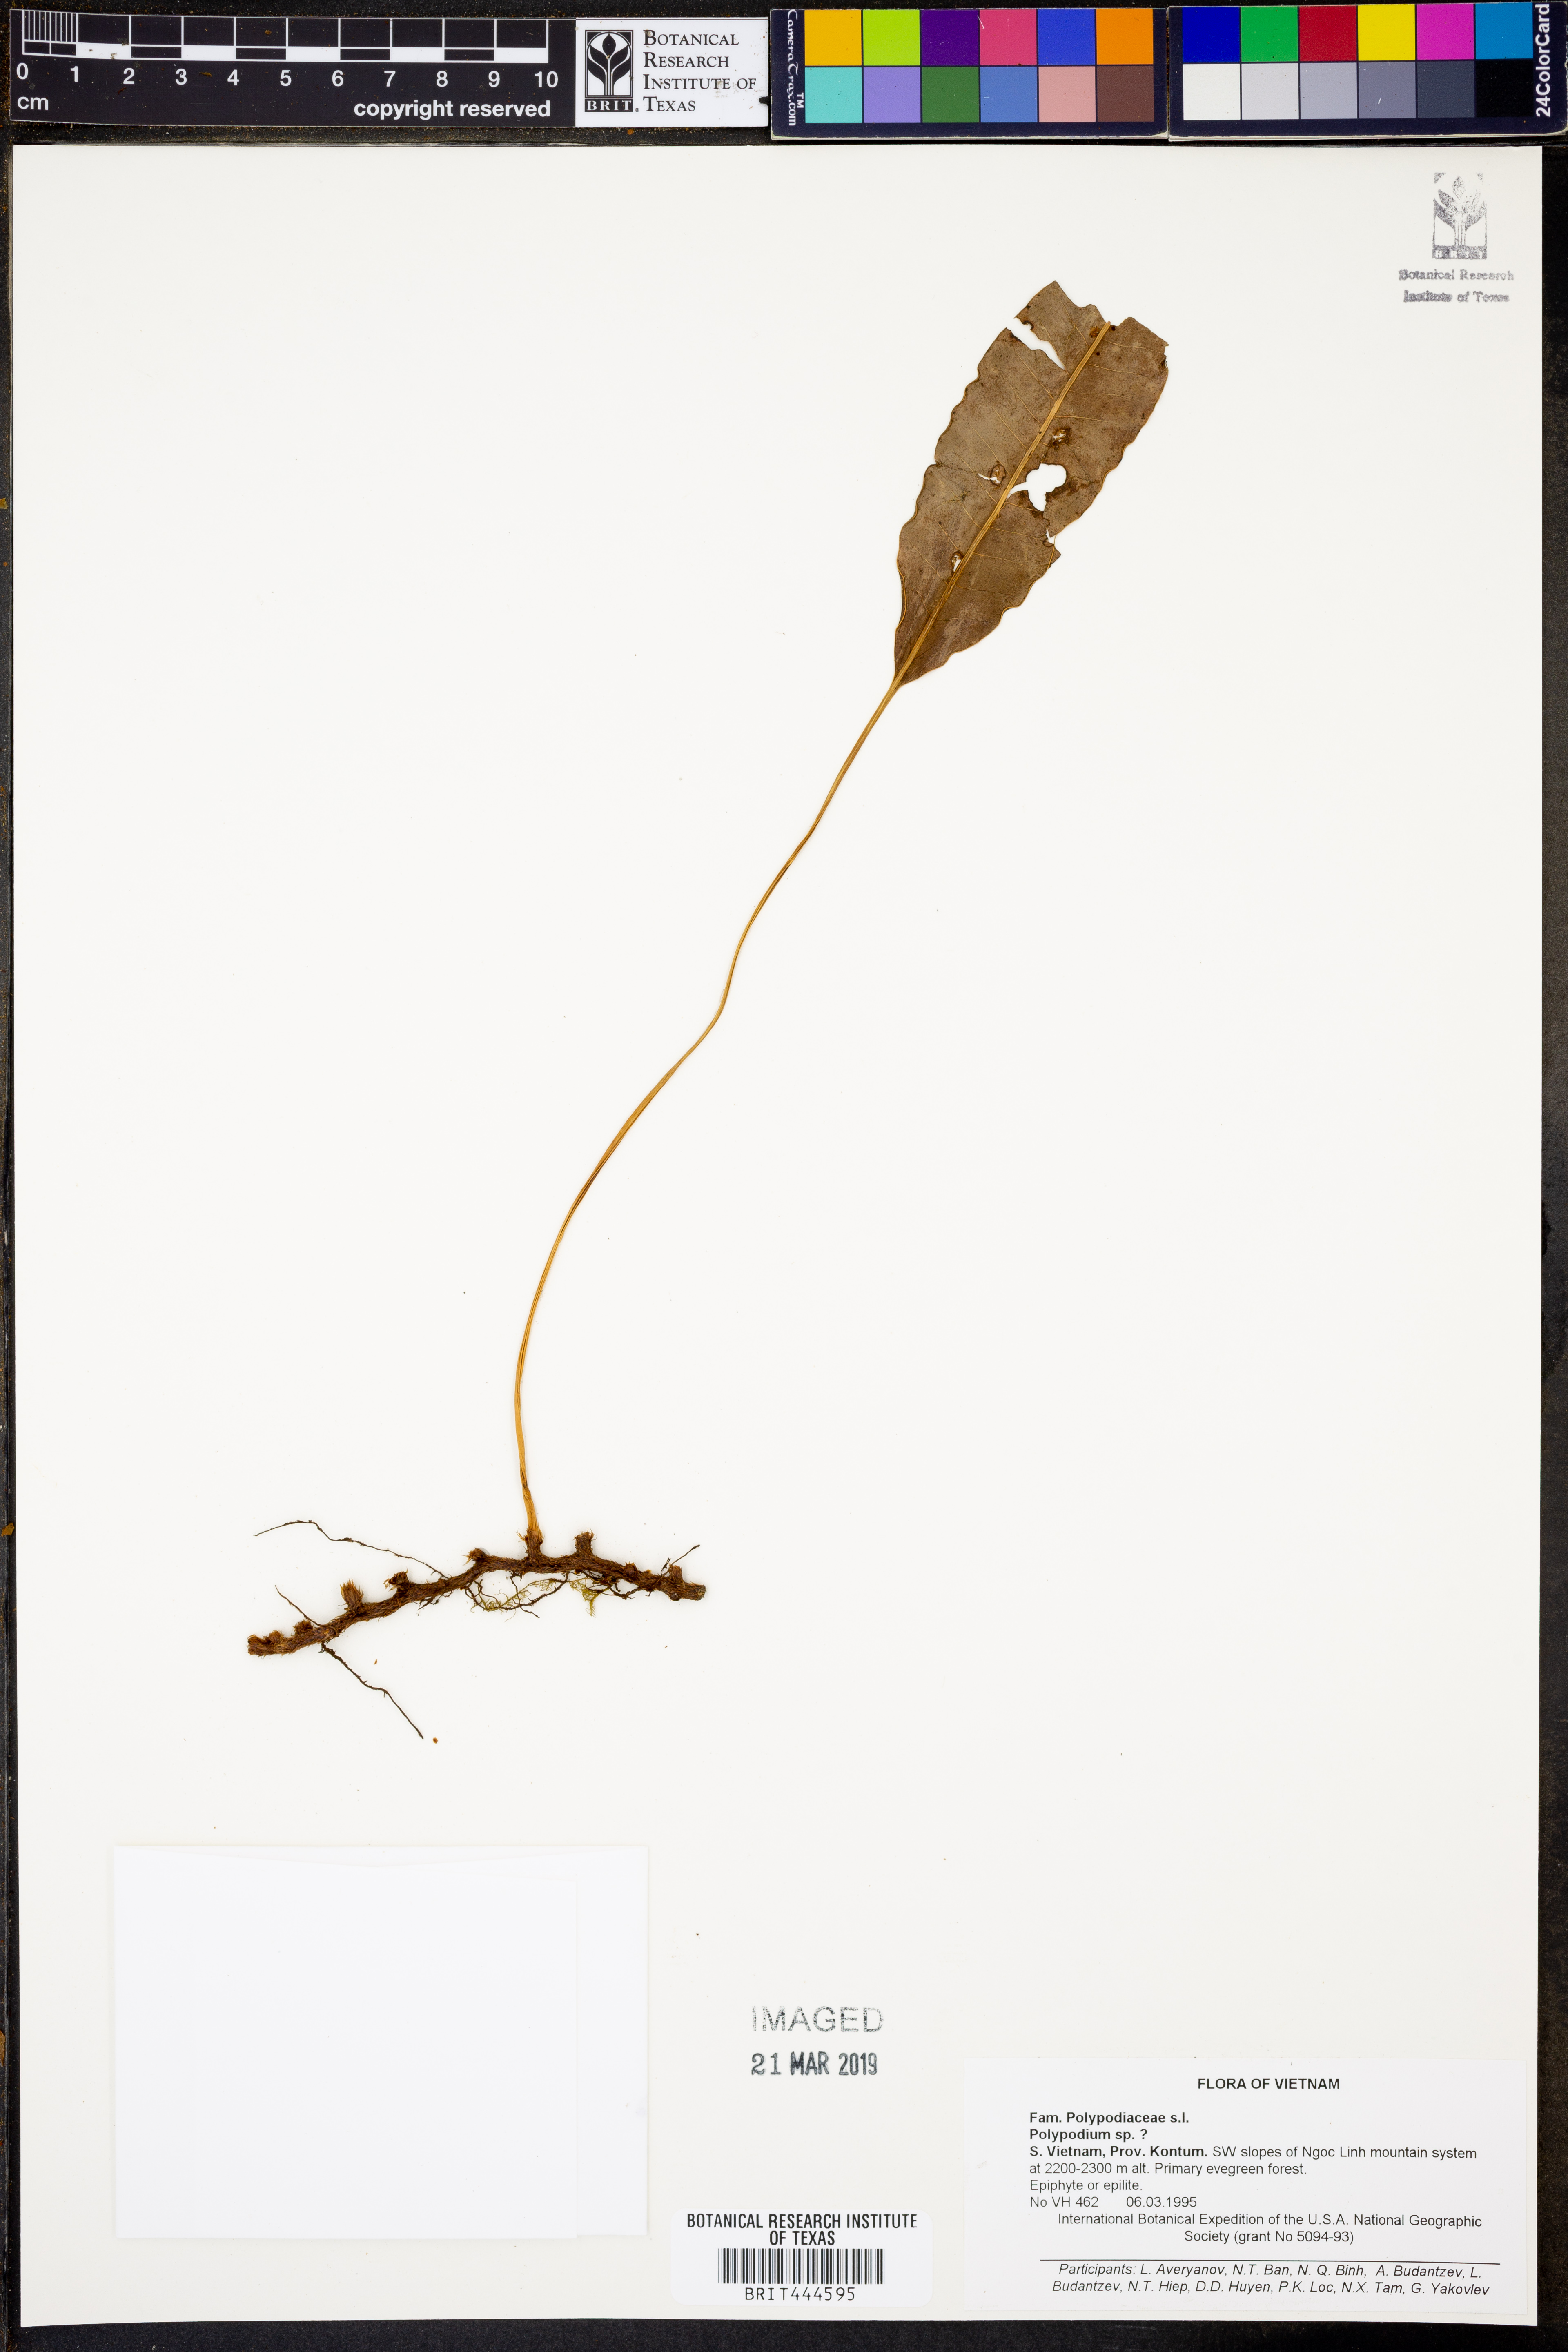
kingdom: Plantae
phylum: Tracheophyta
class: Polypodiopsida
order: Polypodiales
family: Polypodiaceae
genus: Polypodium
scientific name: Polypodium
